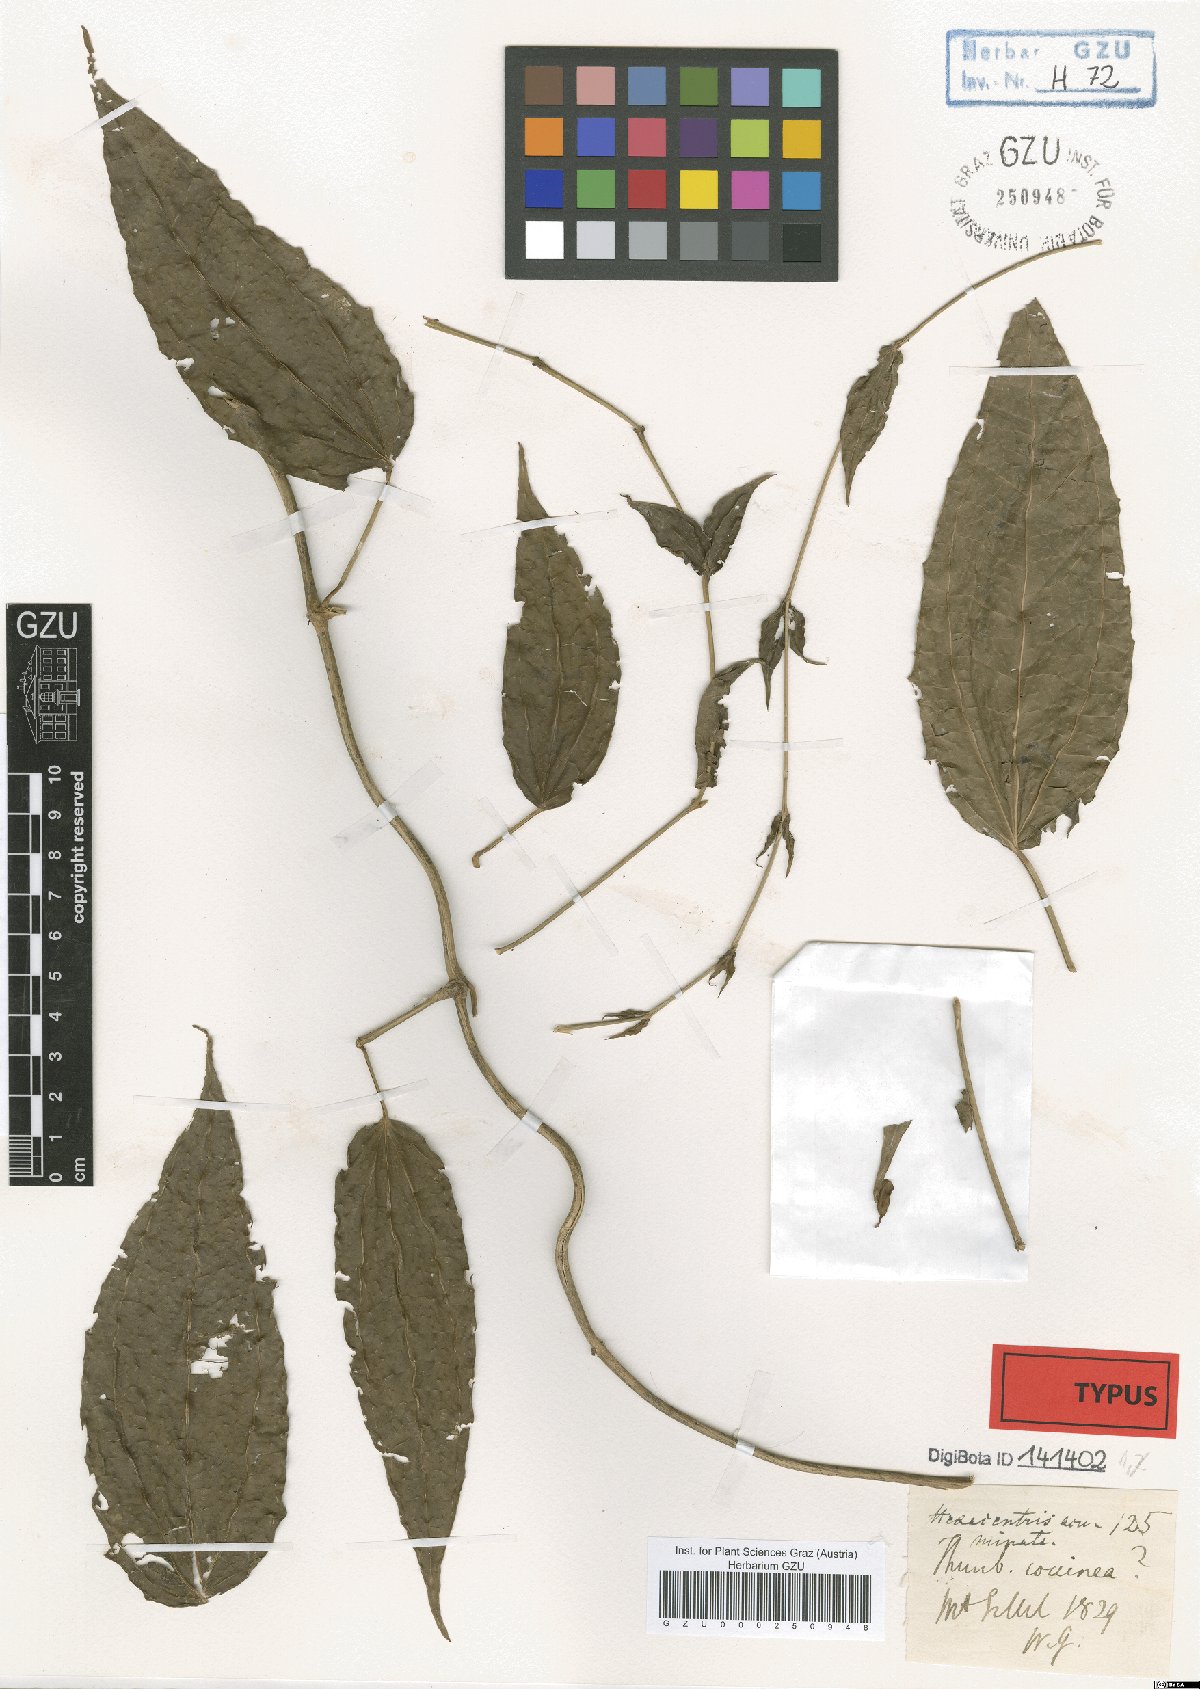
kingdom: Plantae
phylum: Tracheophyta
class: Magnoliopsida
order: Lamiales
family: Acanthaceae
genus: Thunbergia
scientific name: Thunbergia coccinea
